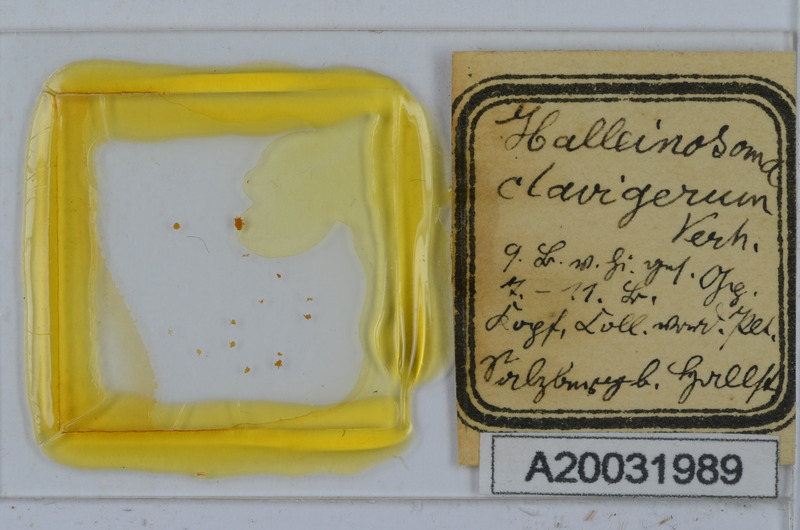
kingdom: Animalia
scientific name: Animalia
